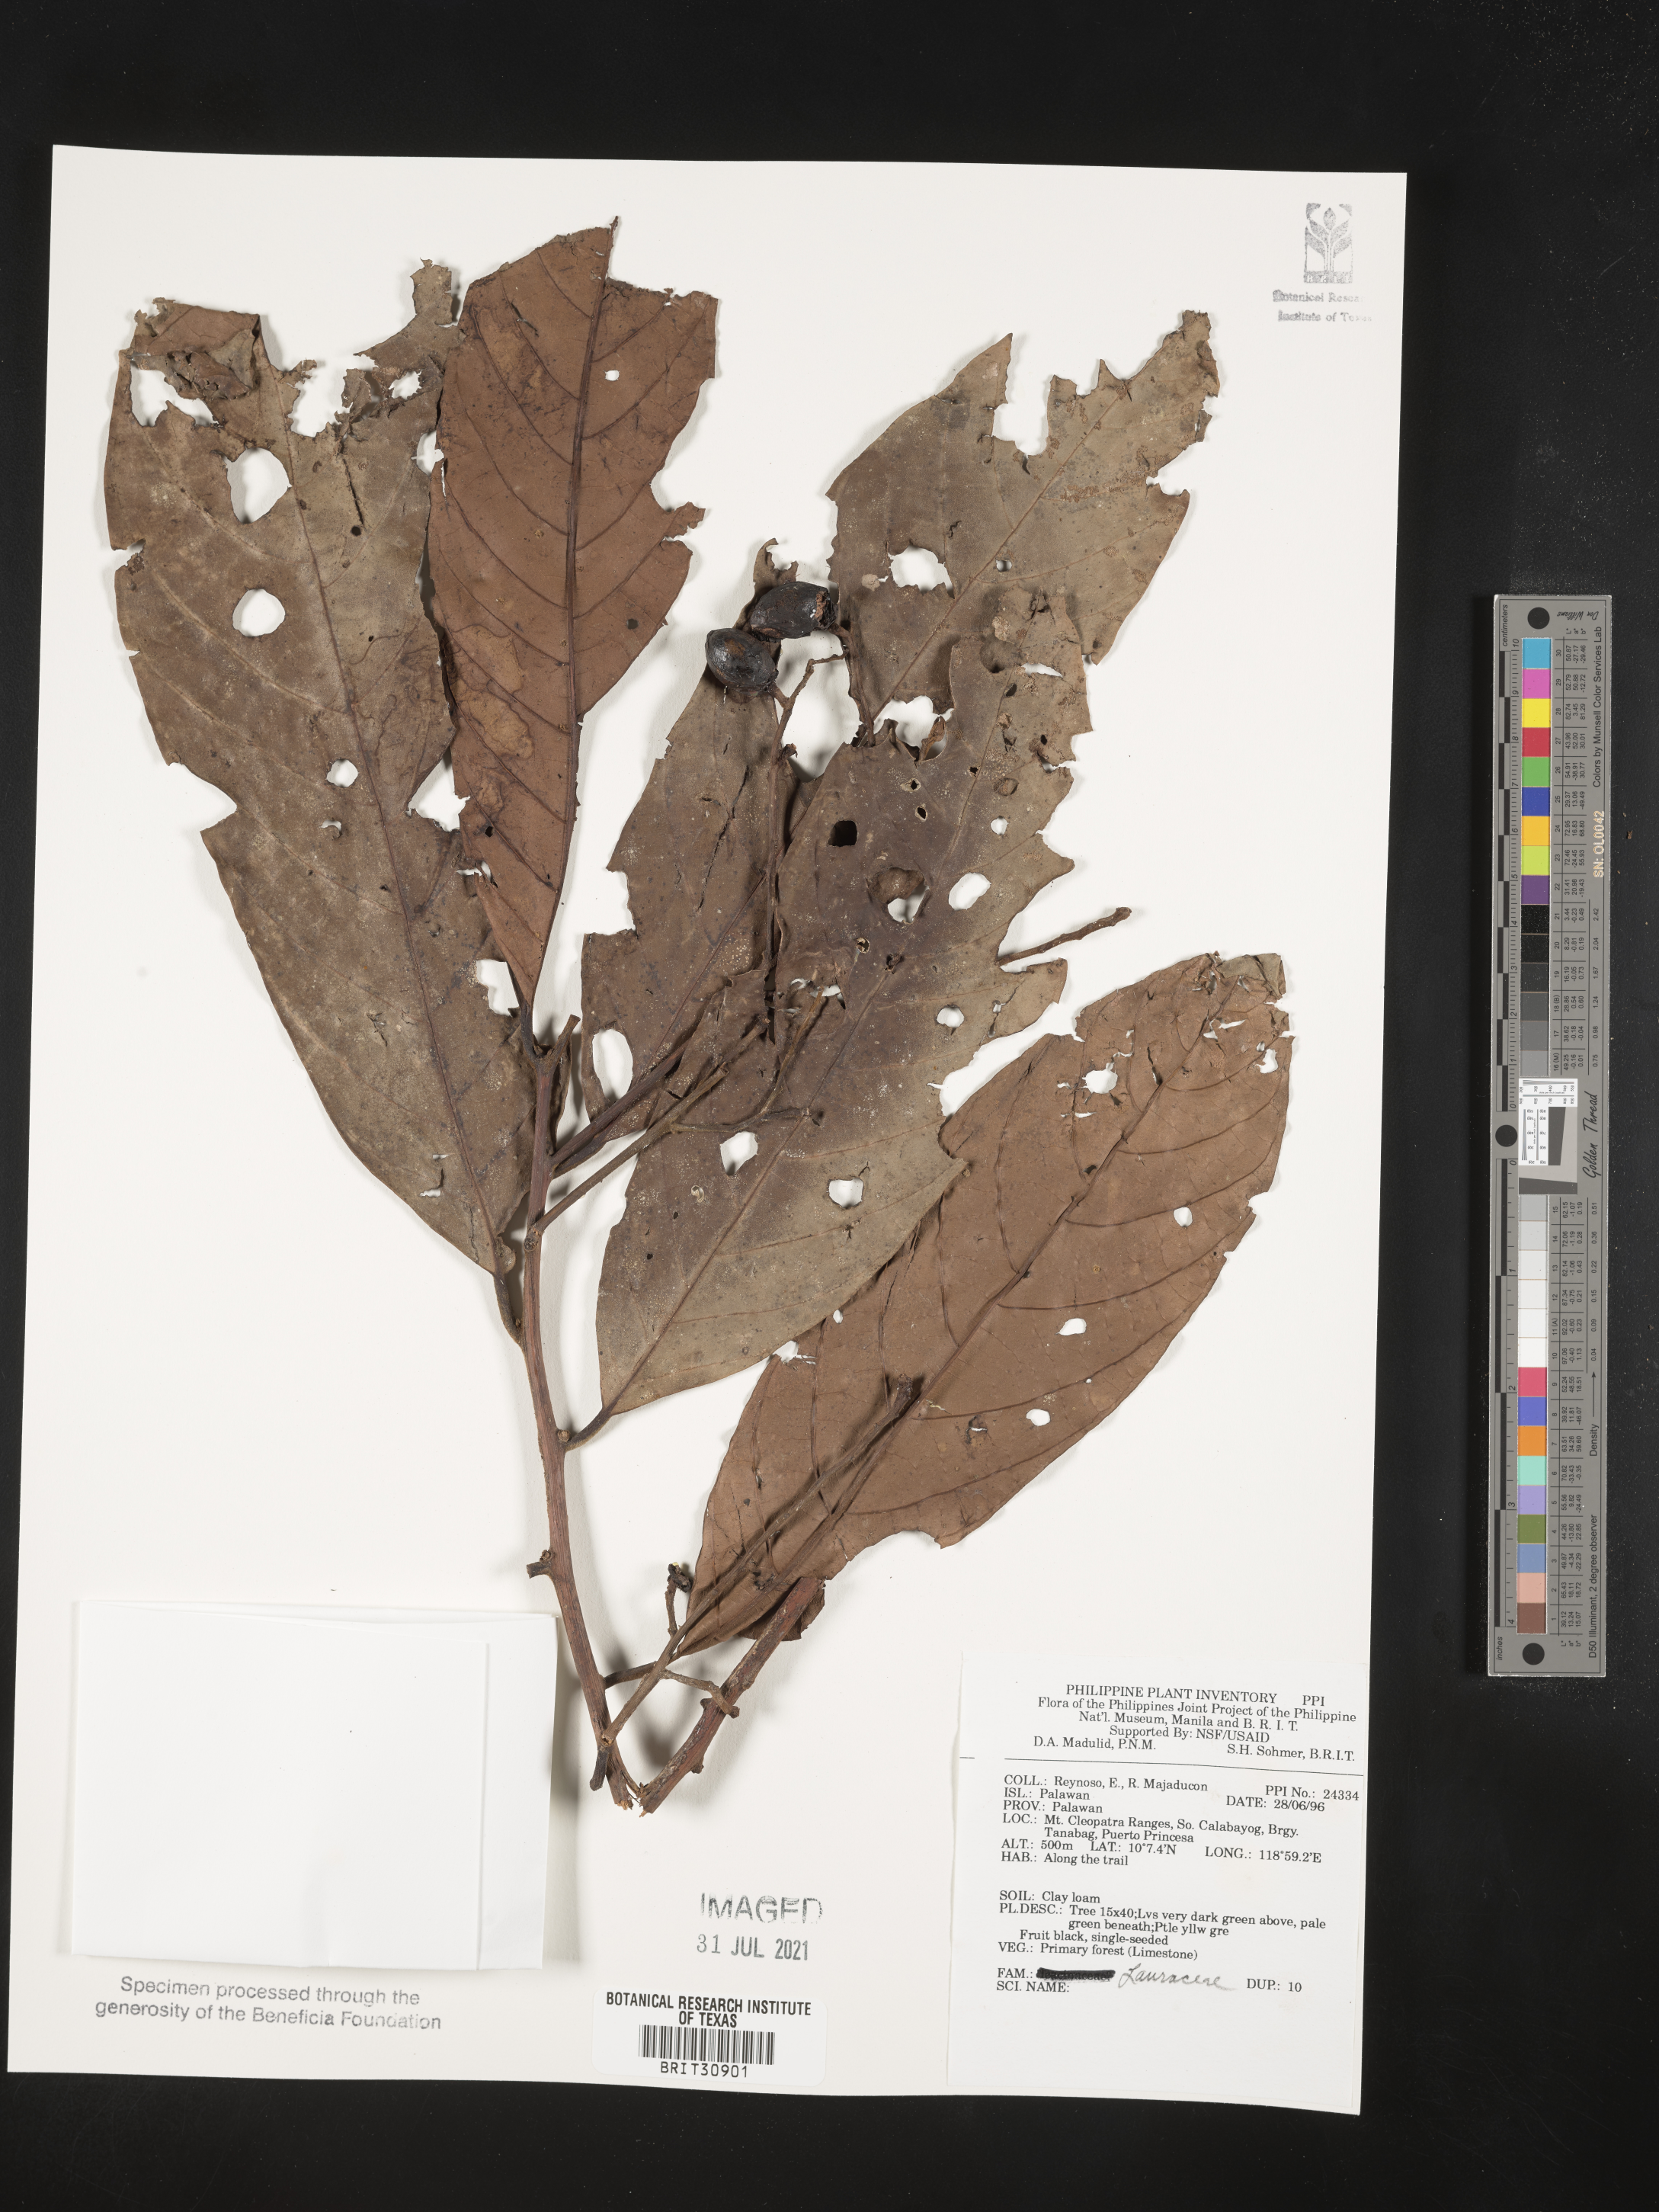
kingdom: Plantae
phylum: Tracheophyta
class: Magnoliopsida
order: Laurales
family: Lauraceae
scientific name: Lauraceae
